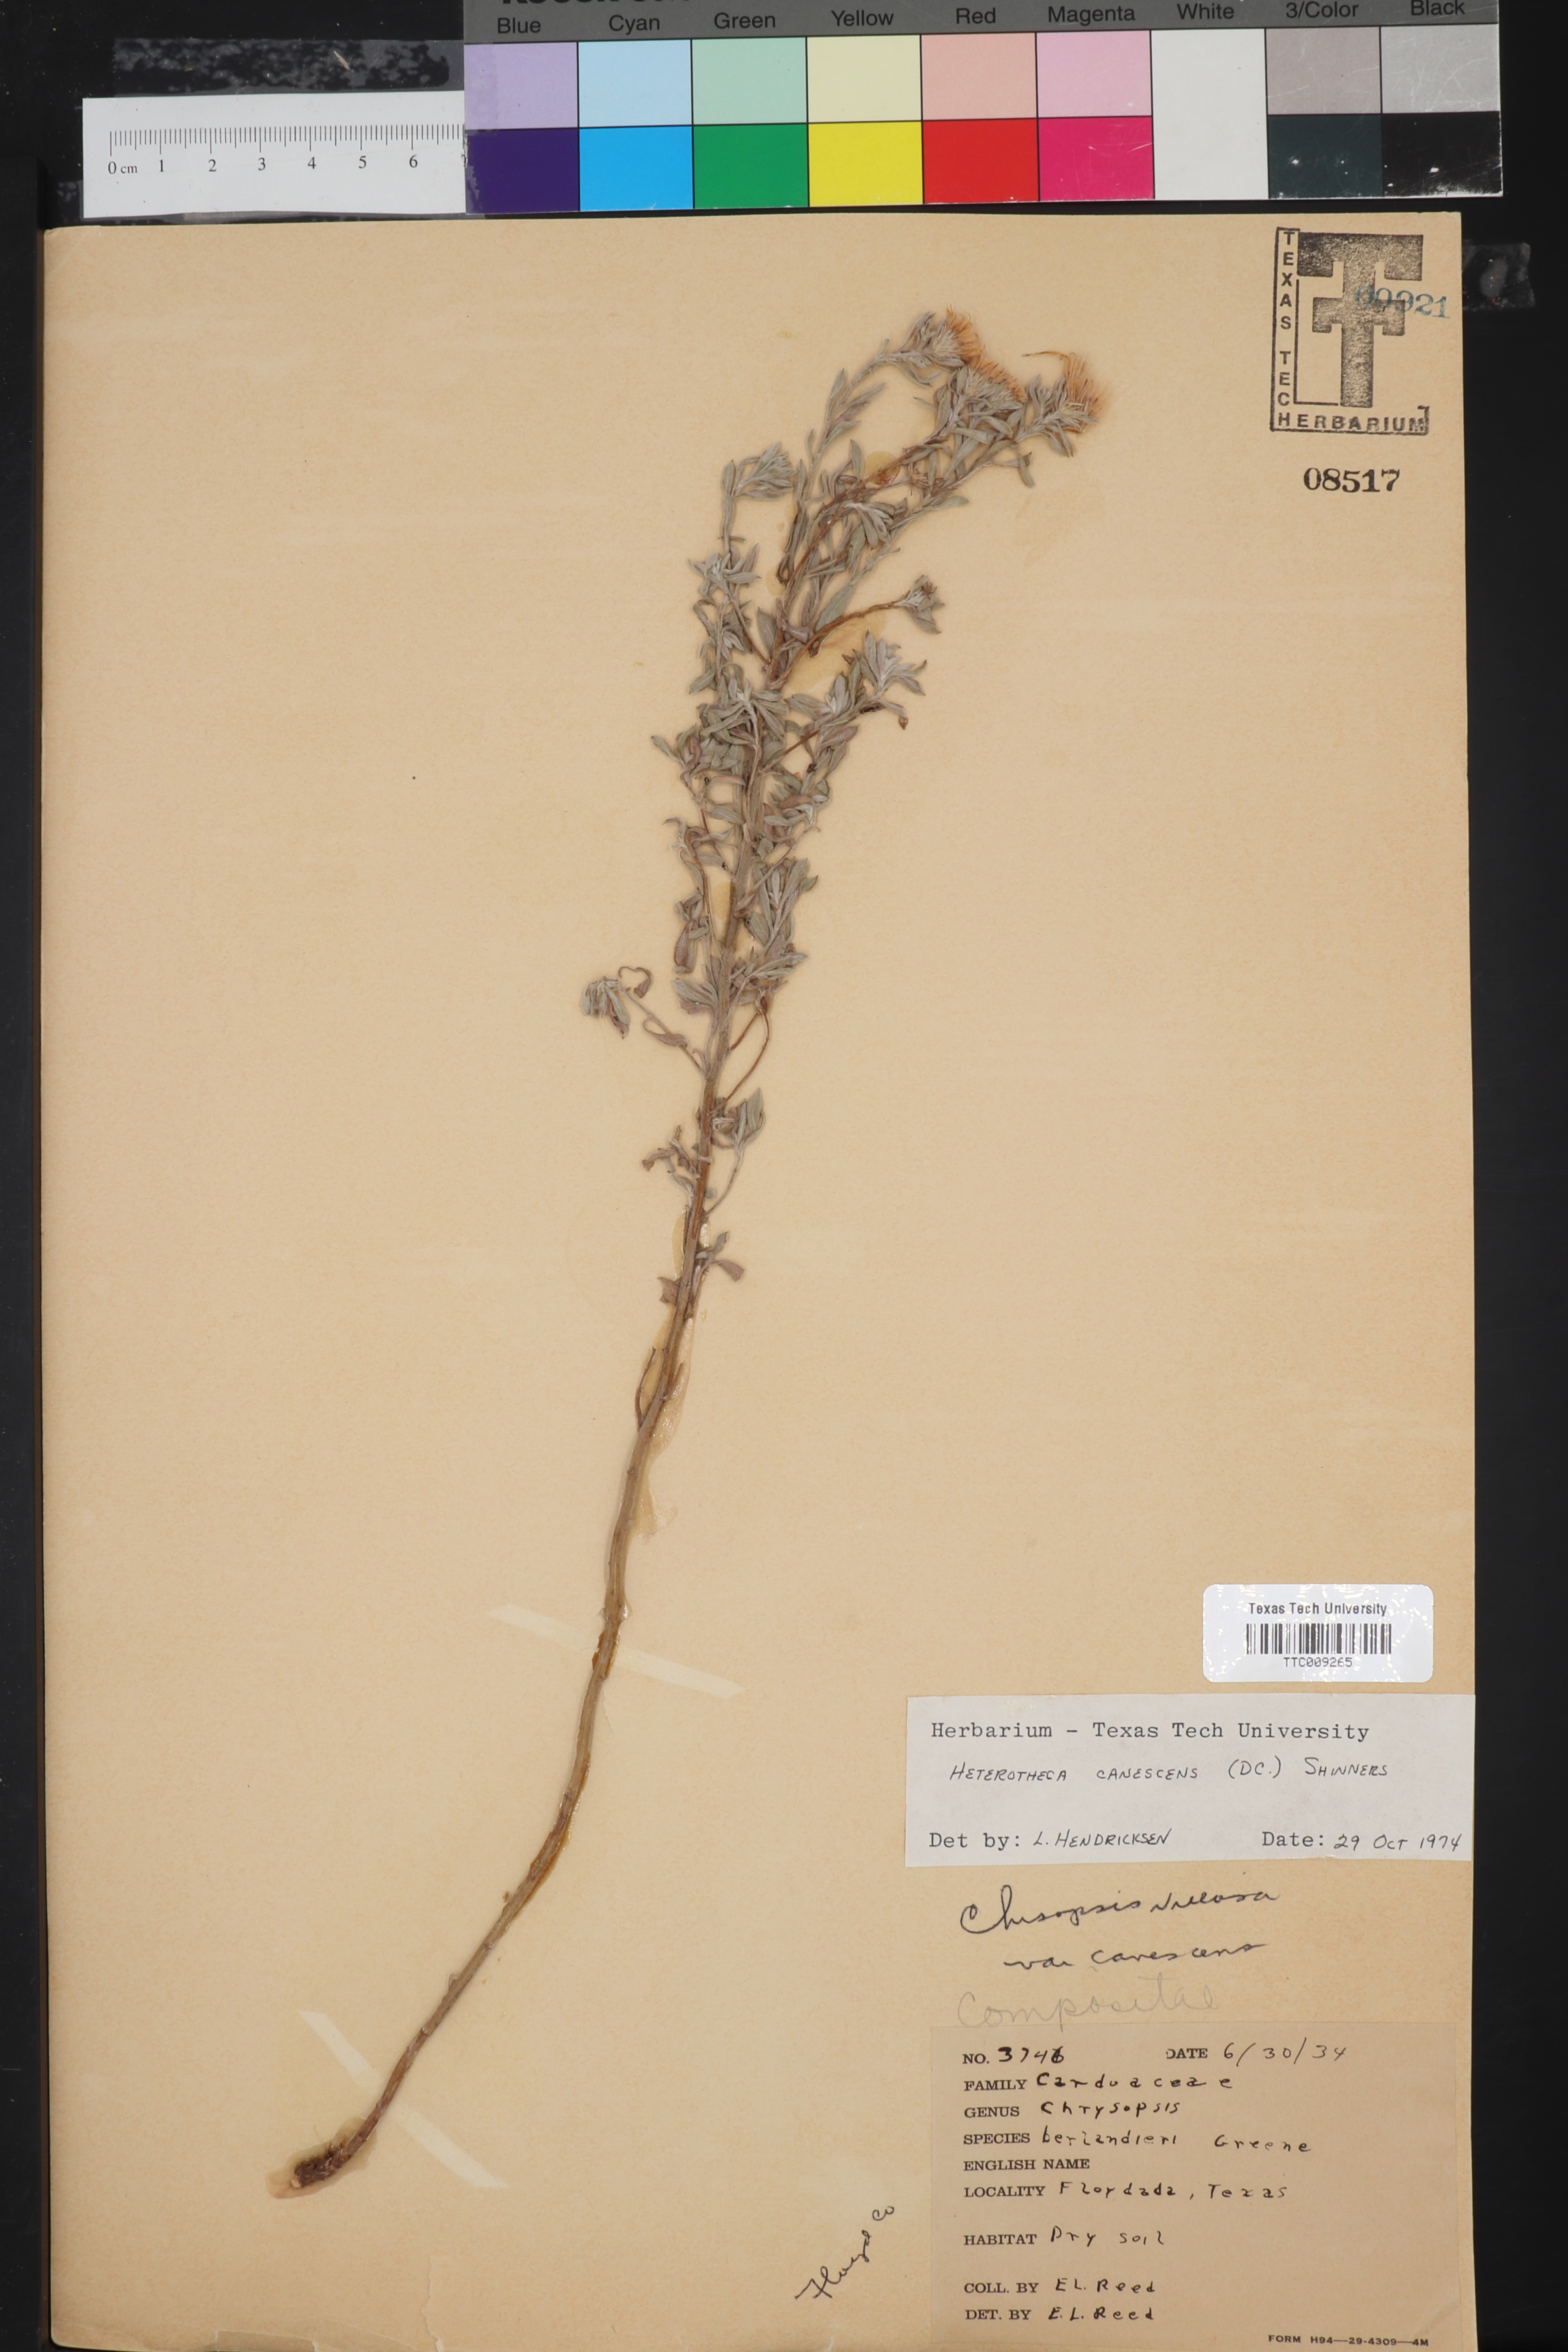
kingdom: Plantae
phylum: Tracheophyta
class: Magnoliopsida
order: Asterales
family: Asteraceae
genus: Heterotheca
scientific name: Heterotheca canescens
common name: Hoary golden-aster
